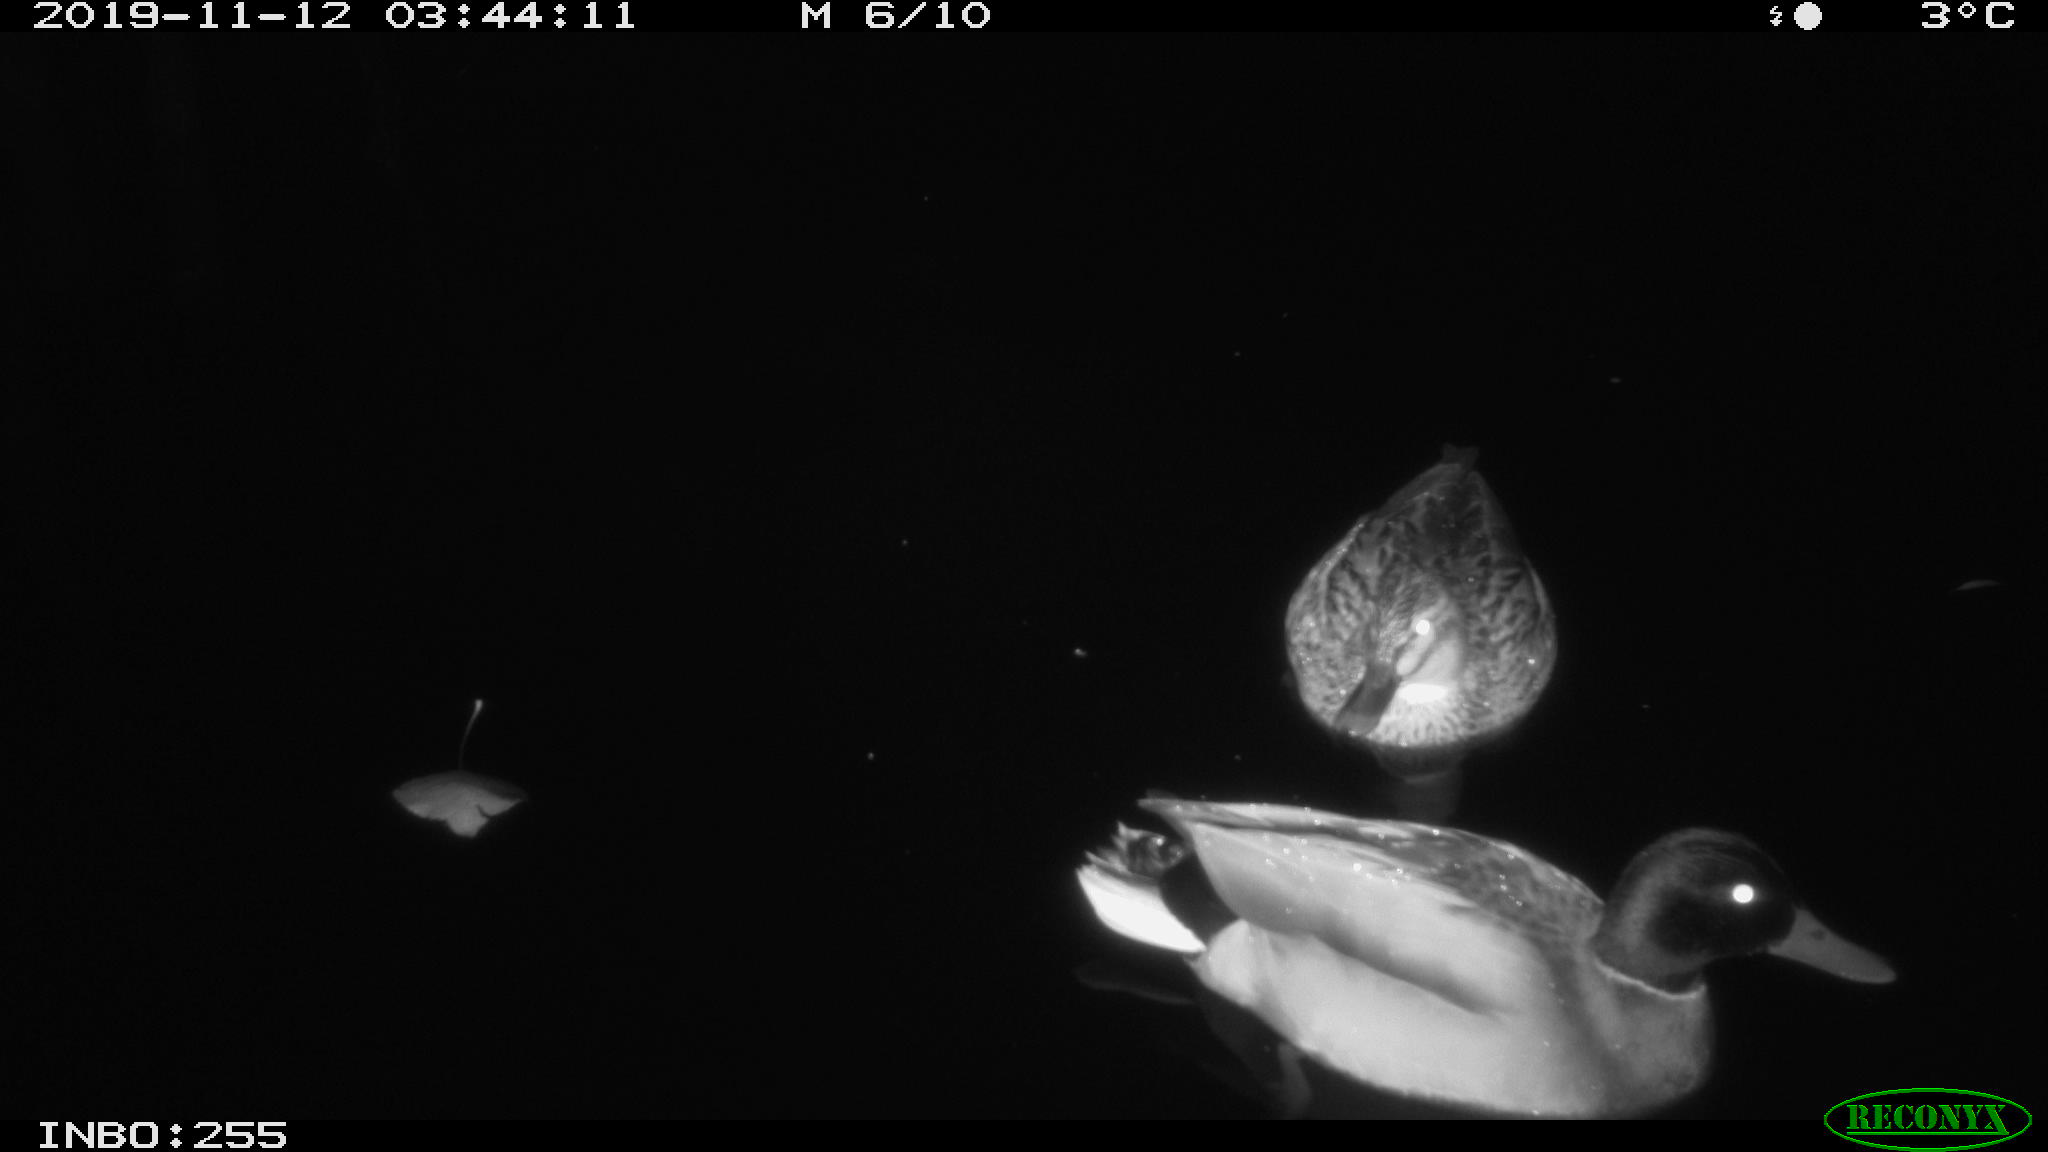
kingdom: Animalia
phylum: Chordata
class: Aves
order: Anseriformes
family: Anatidae
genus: Anas
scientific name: Anas platyrhynchos
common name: Mallard
